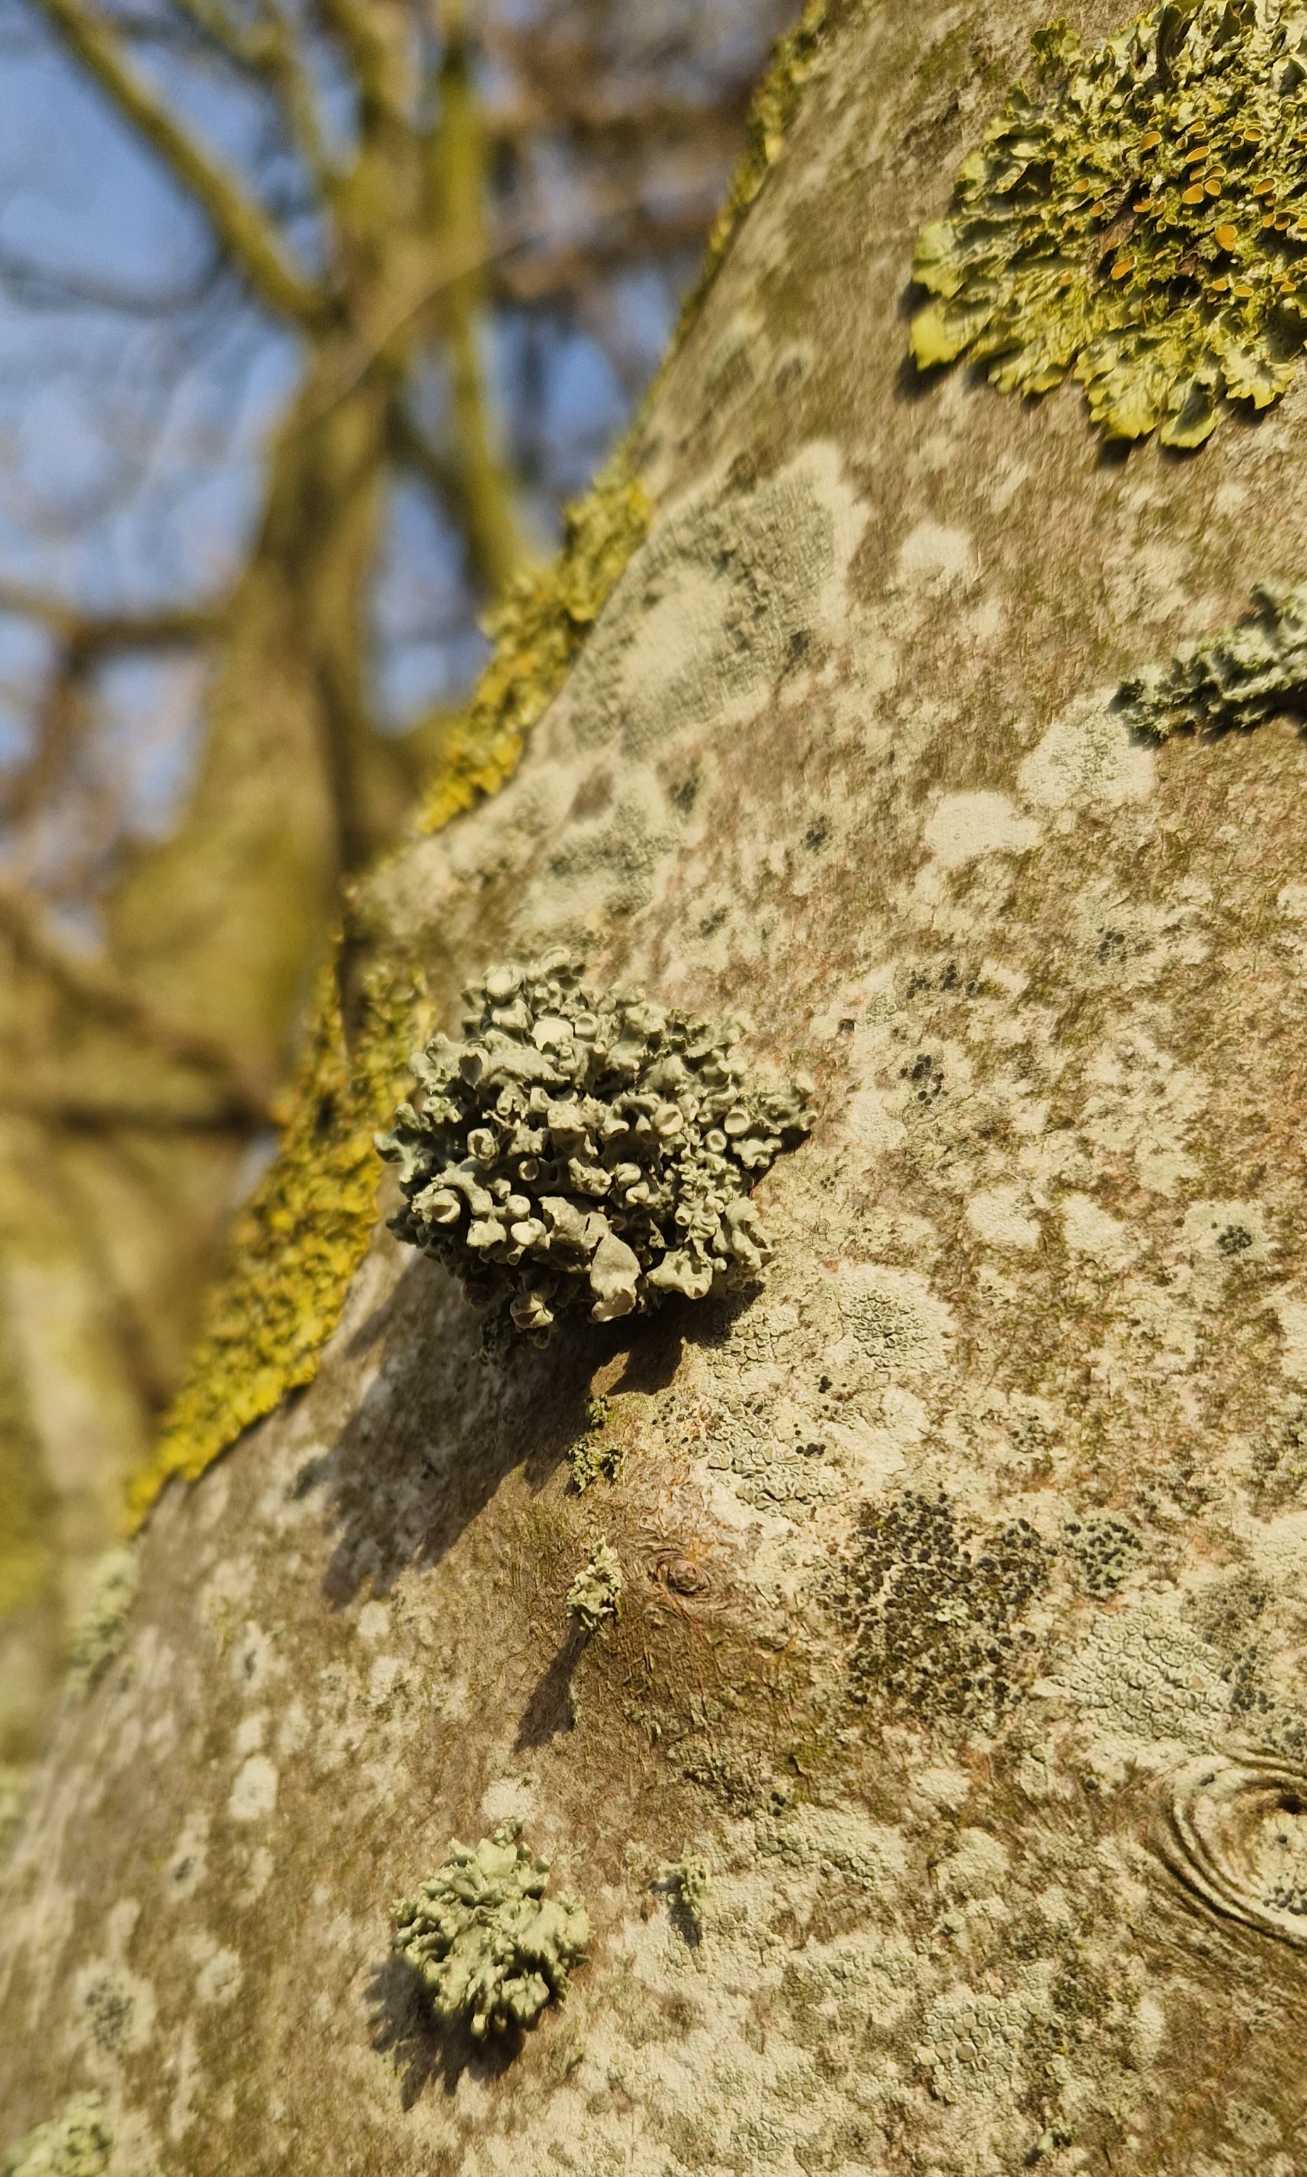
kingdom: Fungi
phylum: Ascomycota
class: Lecanoromycetes
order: Lecanorales
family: Ramalinaceae
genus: Ramalina
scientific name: Ramalina fastigiata
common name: Tue-grenlav
